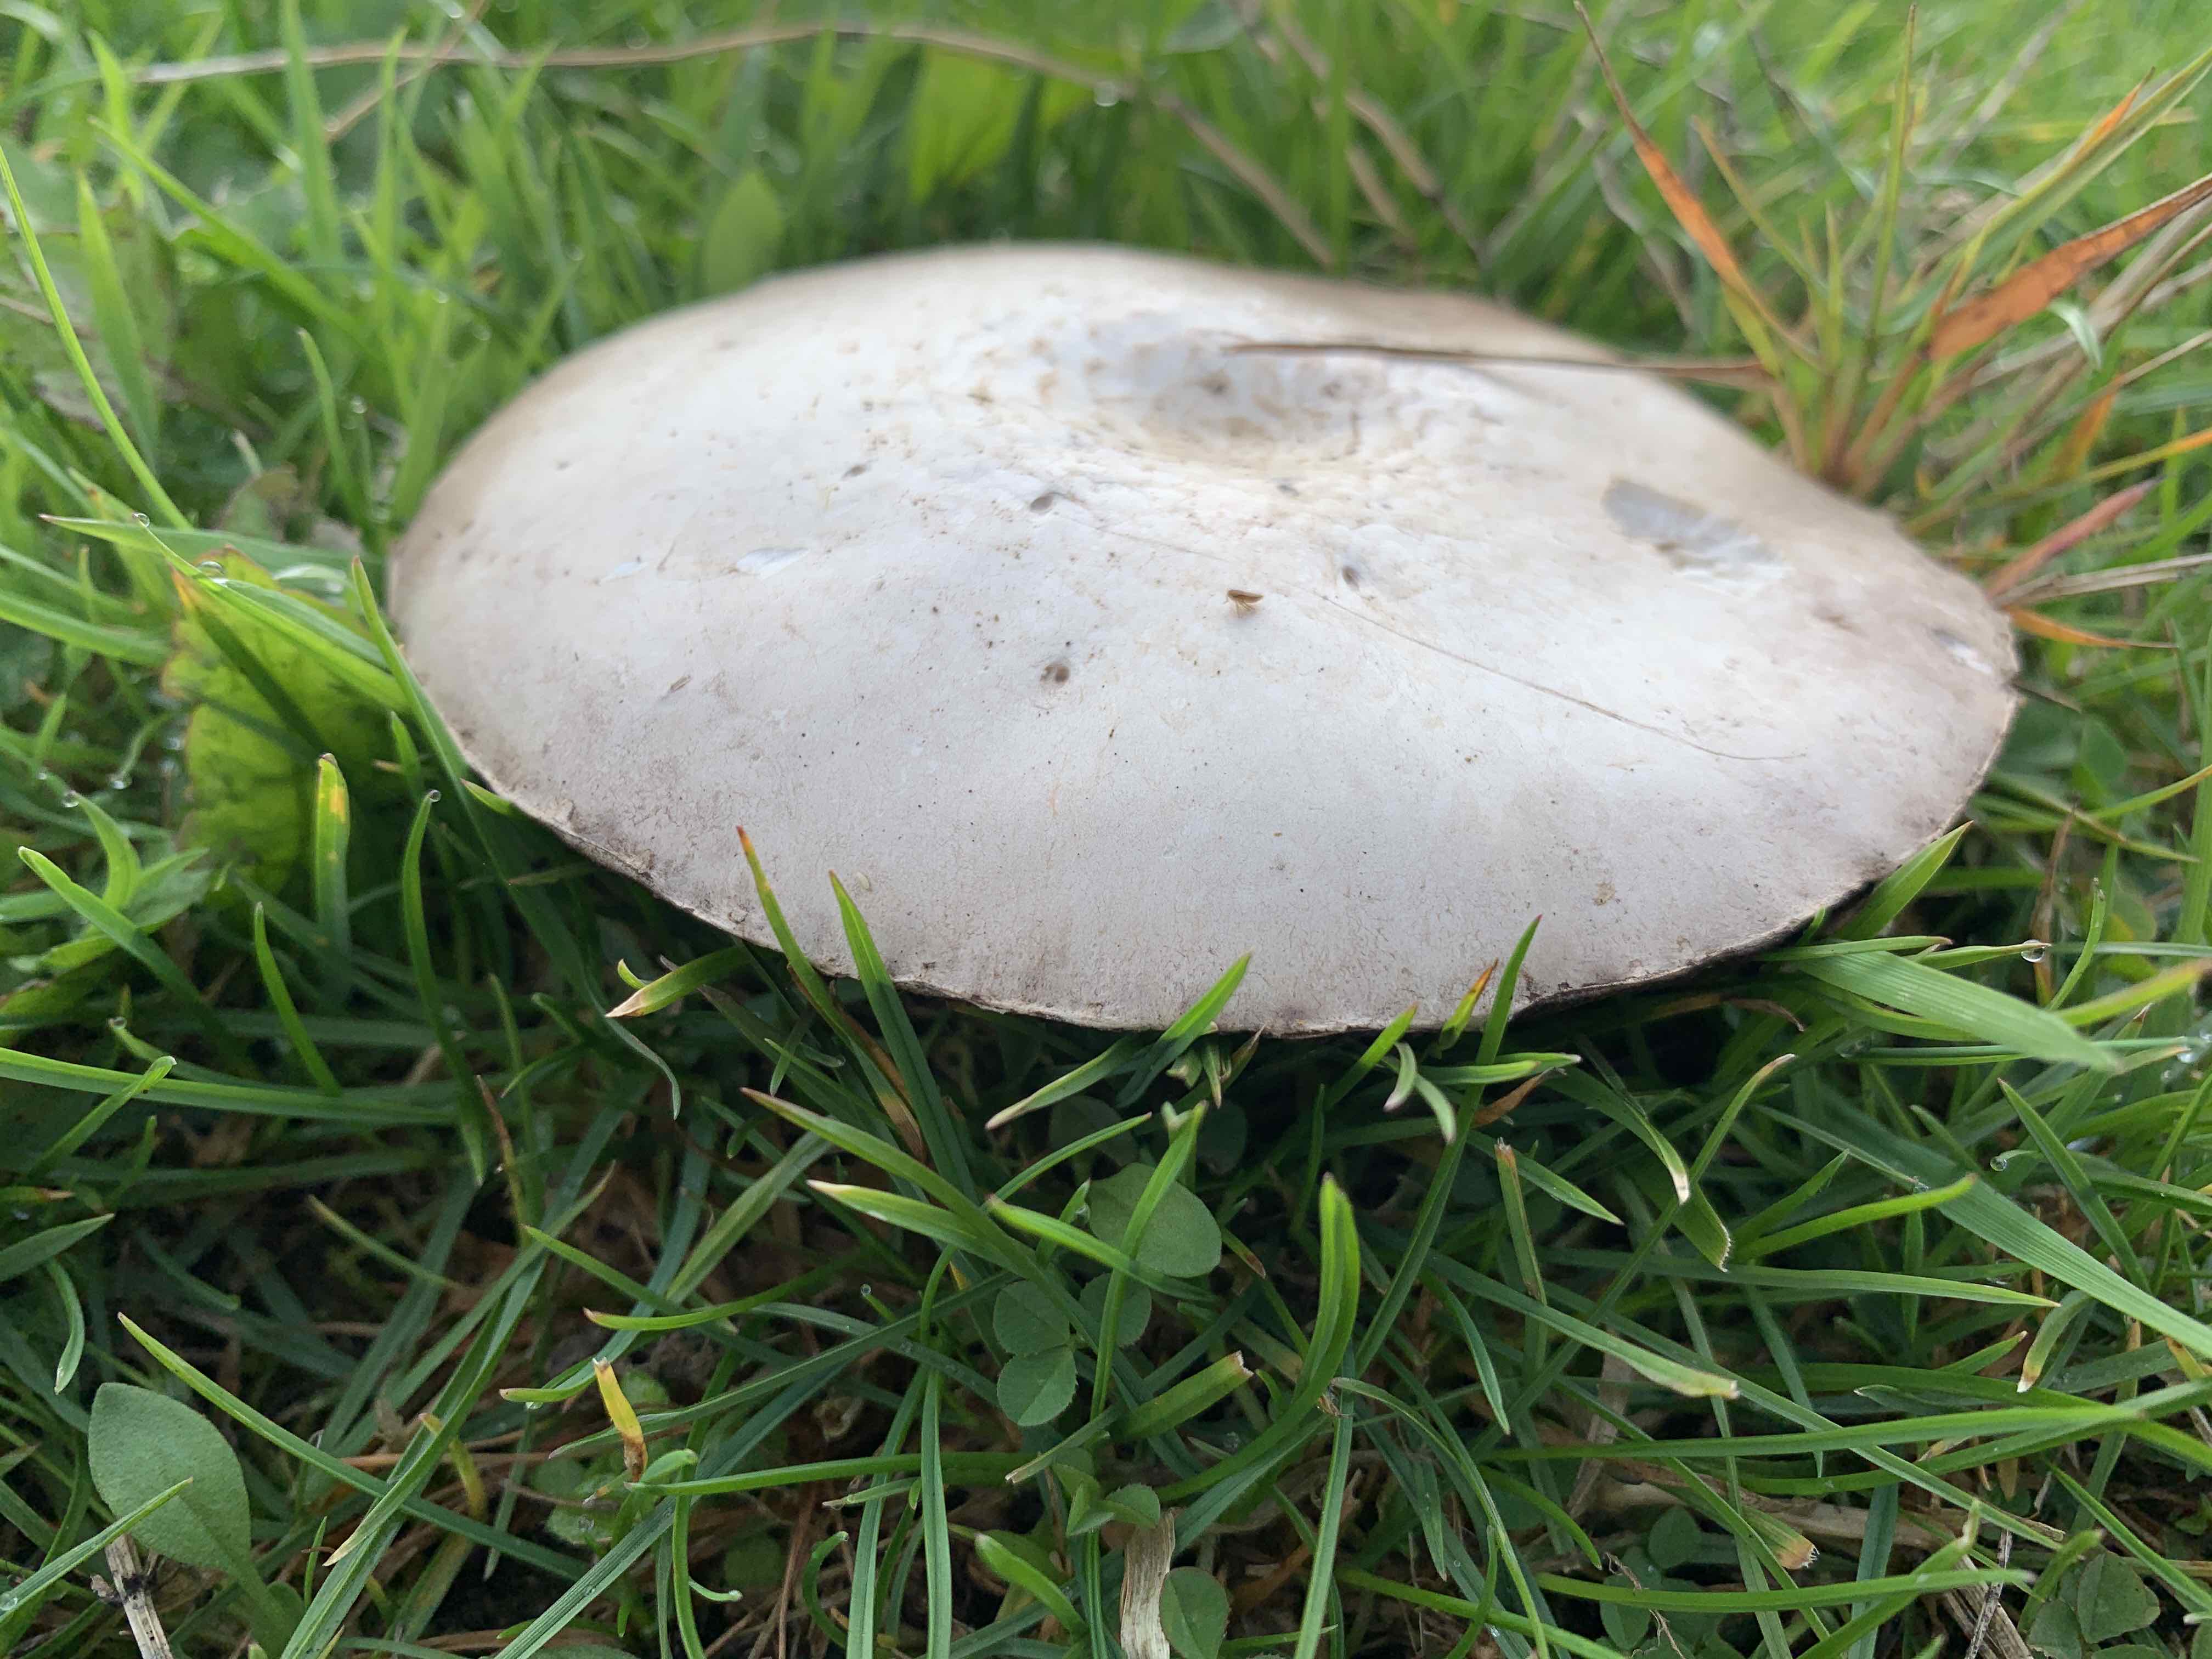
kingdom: Fungi
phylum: Basidiomycota
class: Agaricomycetes
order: Agaricales
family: Agaricaceae
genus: Agaricus
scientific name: Agaricus campestris
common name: mark-champignon
